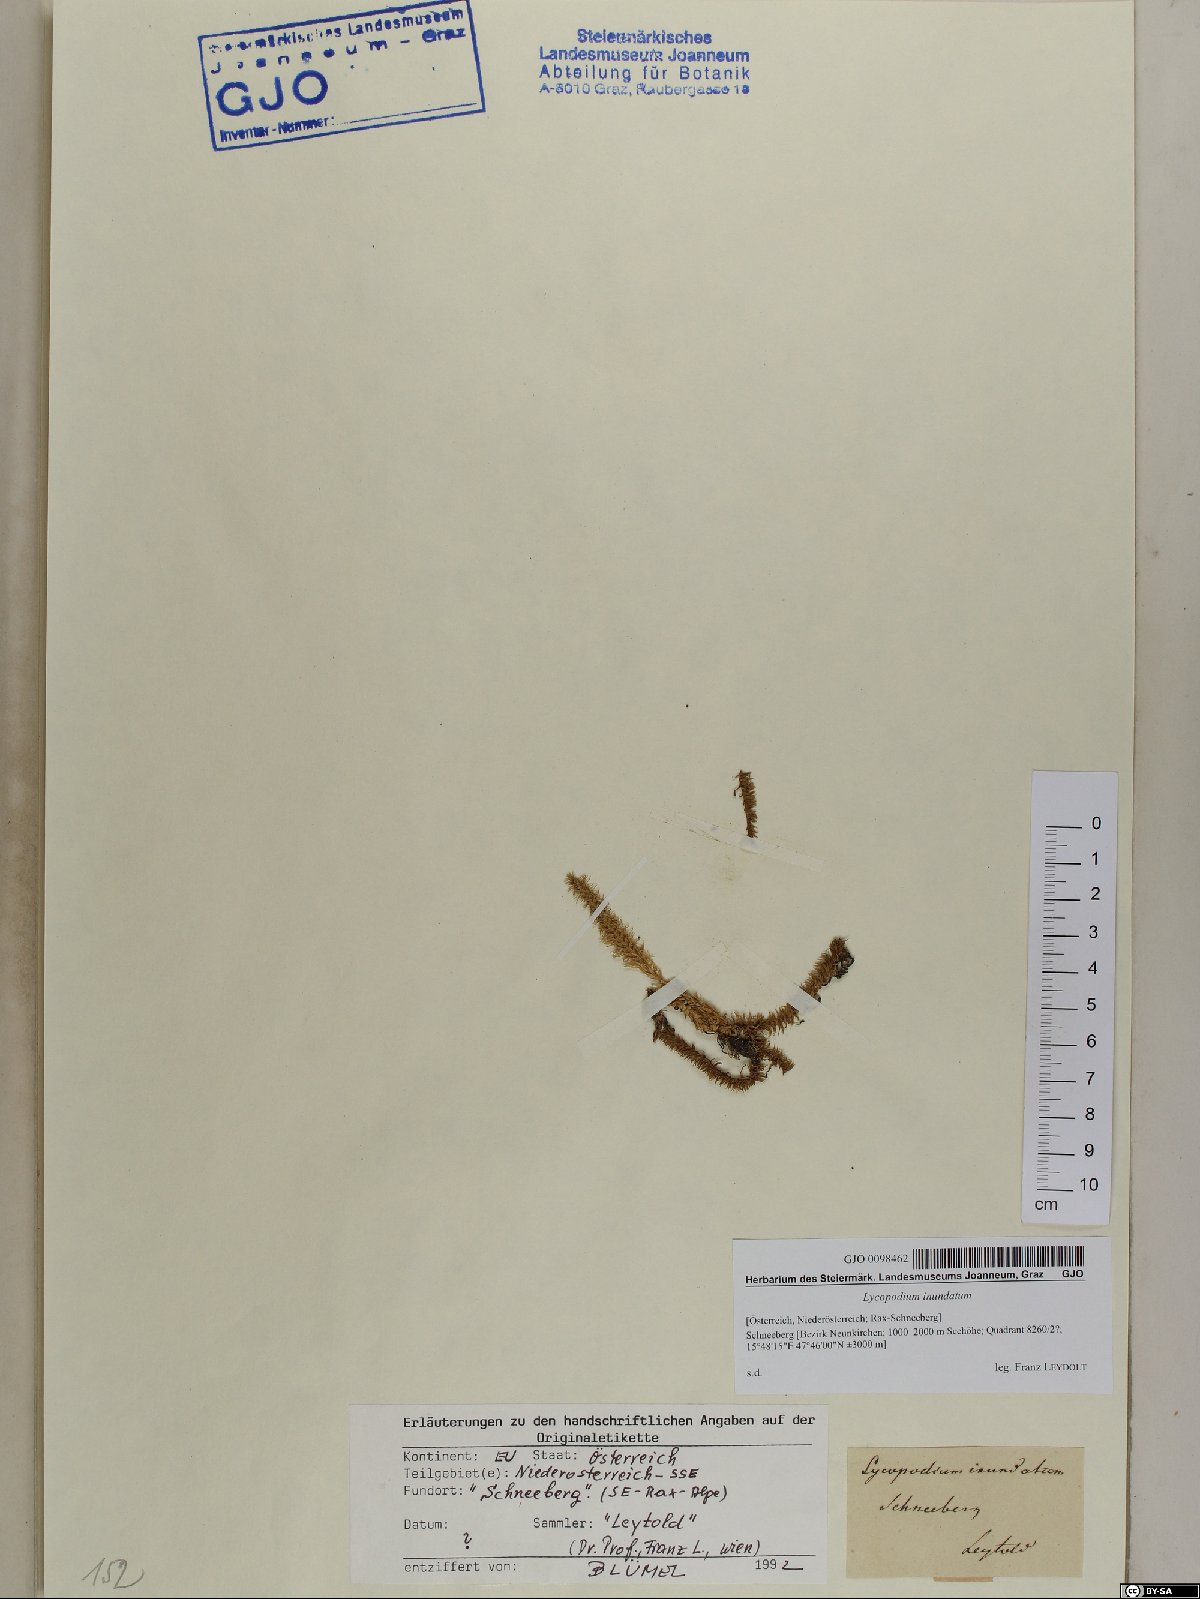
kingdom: Plantae
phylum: Tracheophyta
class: Lycopodiopsida
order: Lycopodiales
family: Lycopodiaceae
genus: Lycopodiella
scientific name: Lycopodiella inundata
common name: Marsh clubmoss
